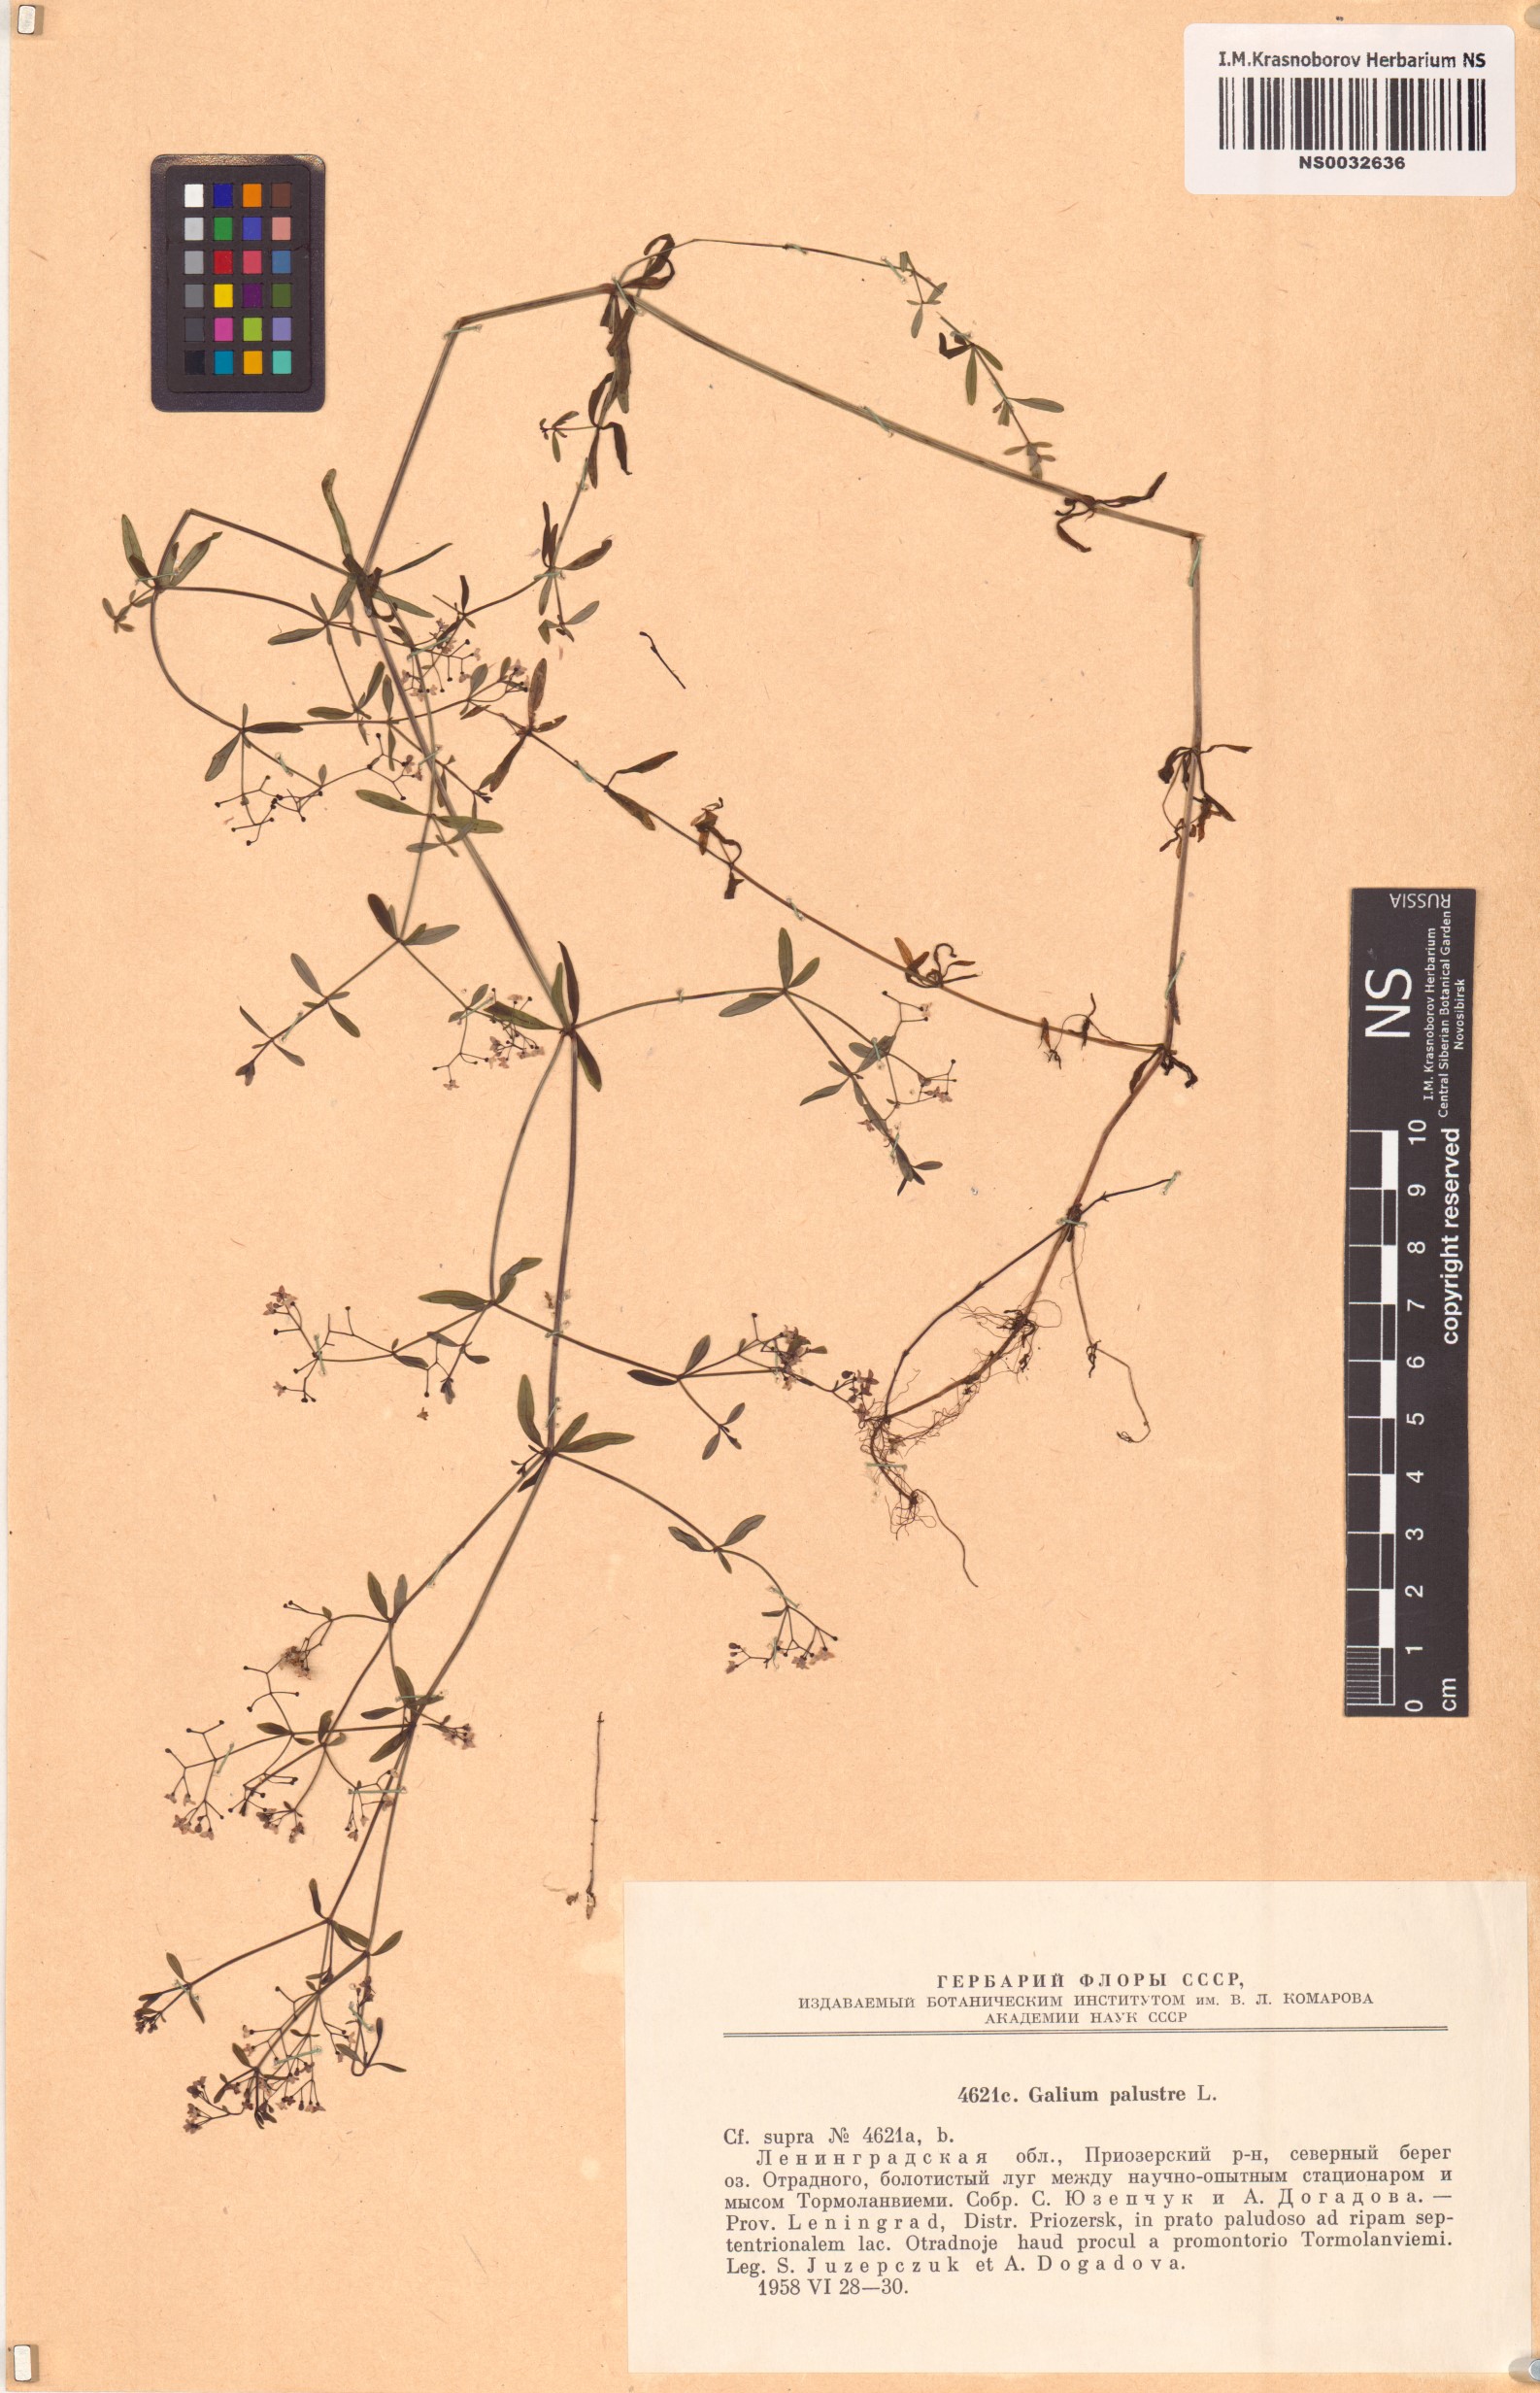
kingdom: Plantae
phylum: Tracheophyta
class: Magnoliopsida
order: Gentianales
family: Rubiaceae
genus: Galium
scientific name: Galium palustre
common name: Common marsh-bedstraw
